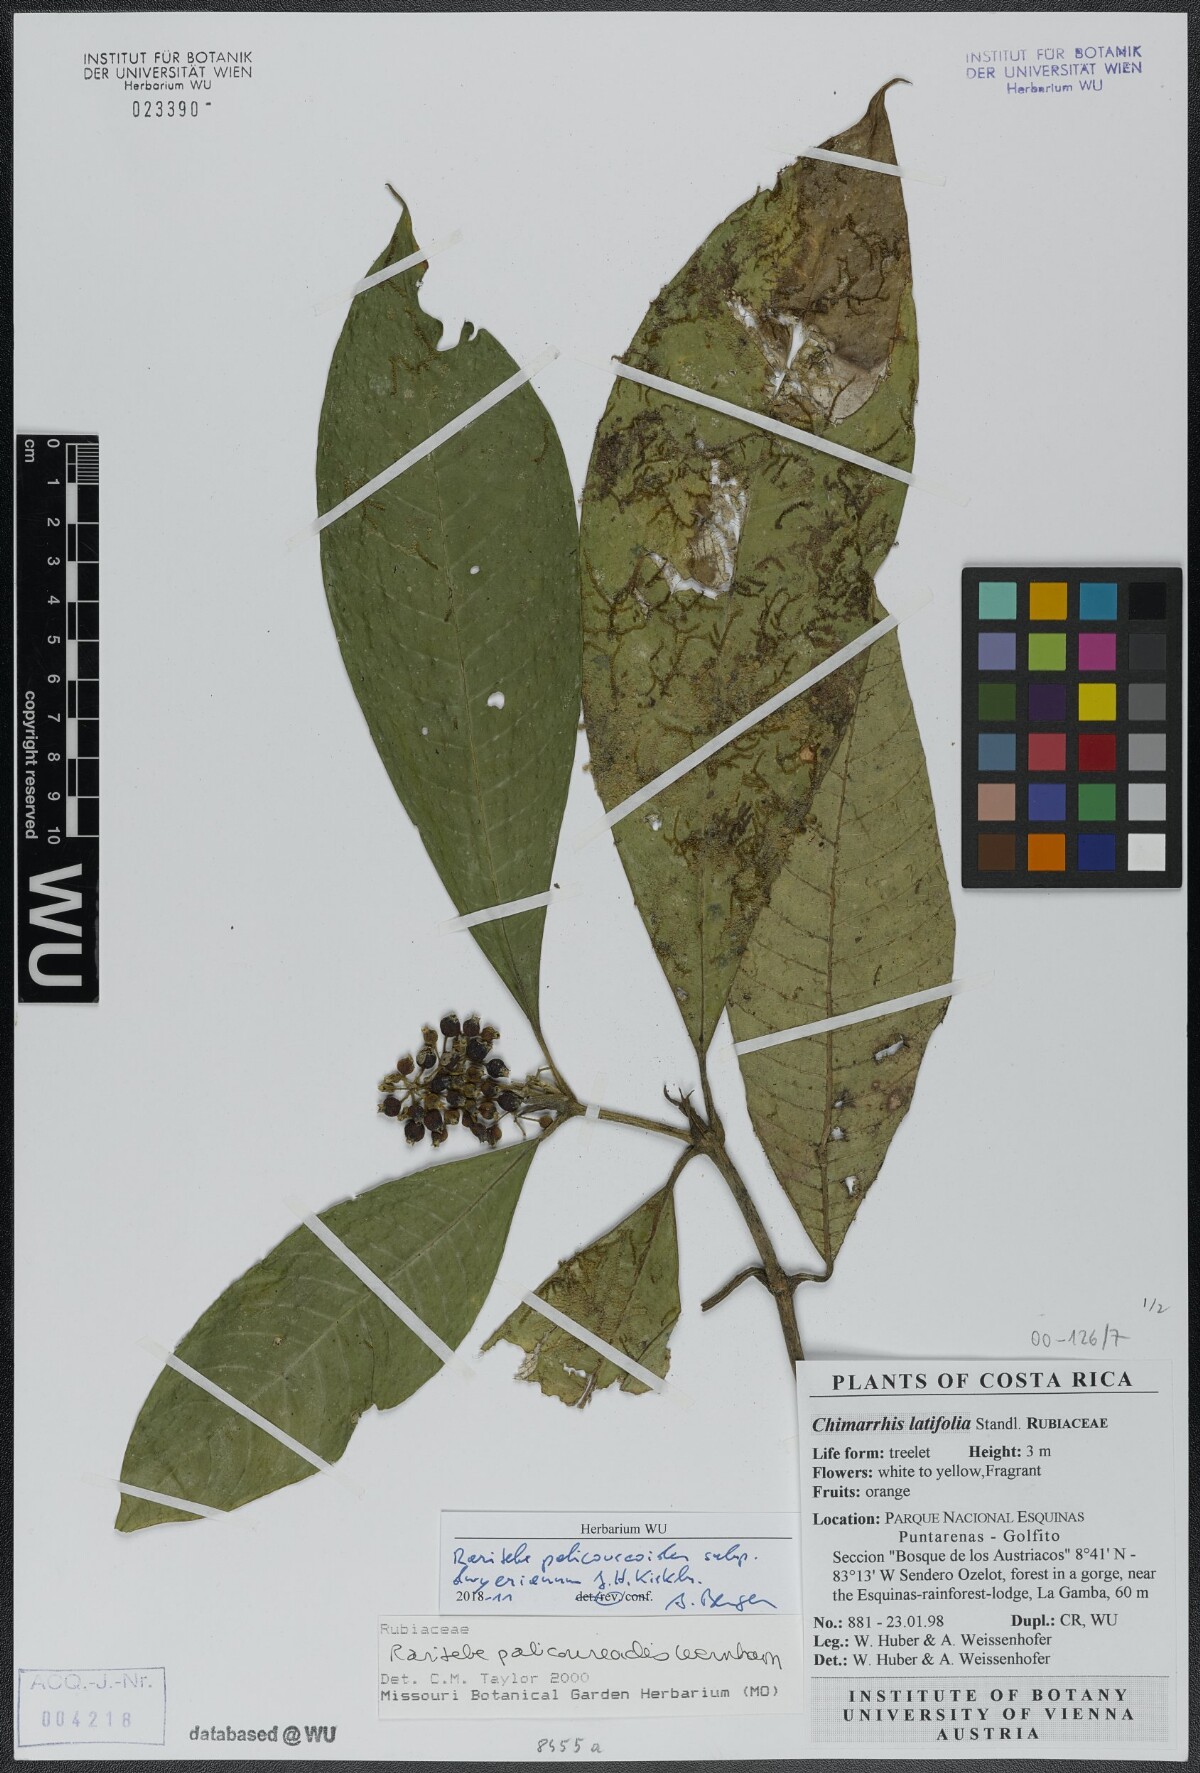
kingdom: Plantae
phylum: Tracheophyta
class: Magnoliopsida
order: Gentianales
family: Rubiaceae
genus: Raritebe
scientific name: Raritebe palicoureoides
